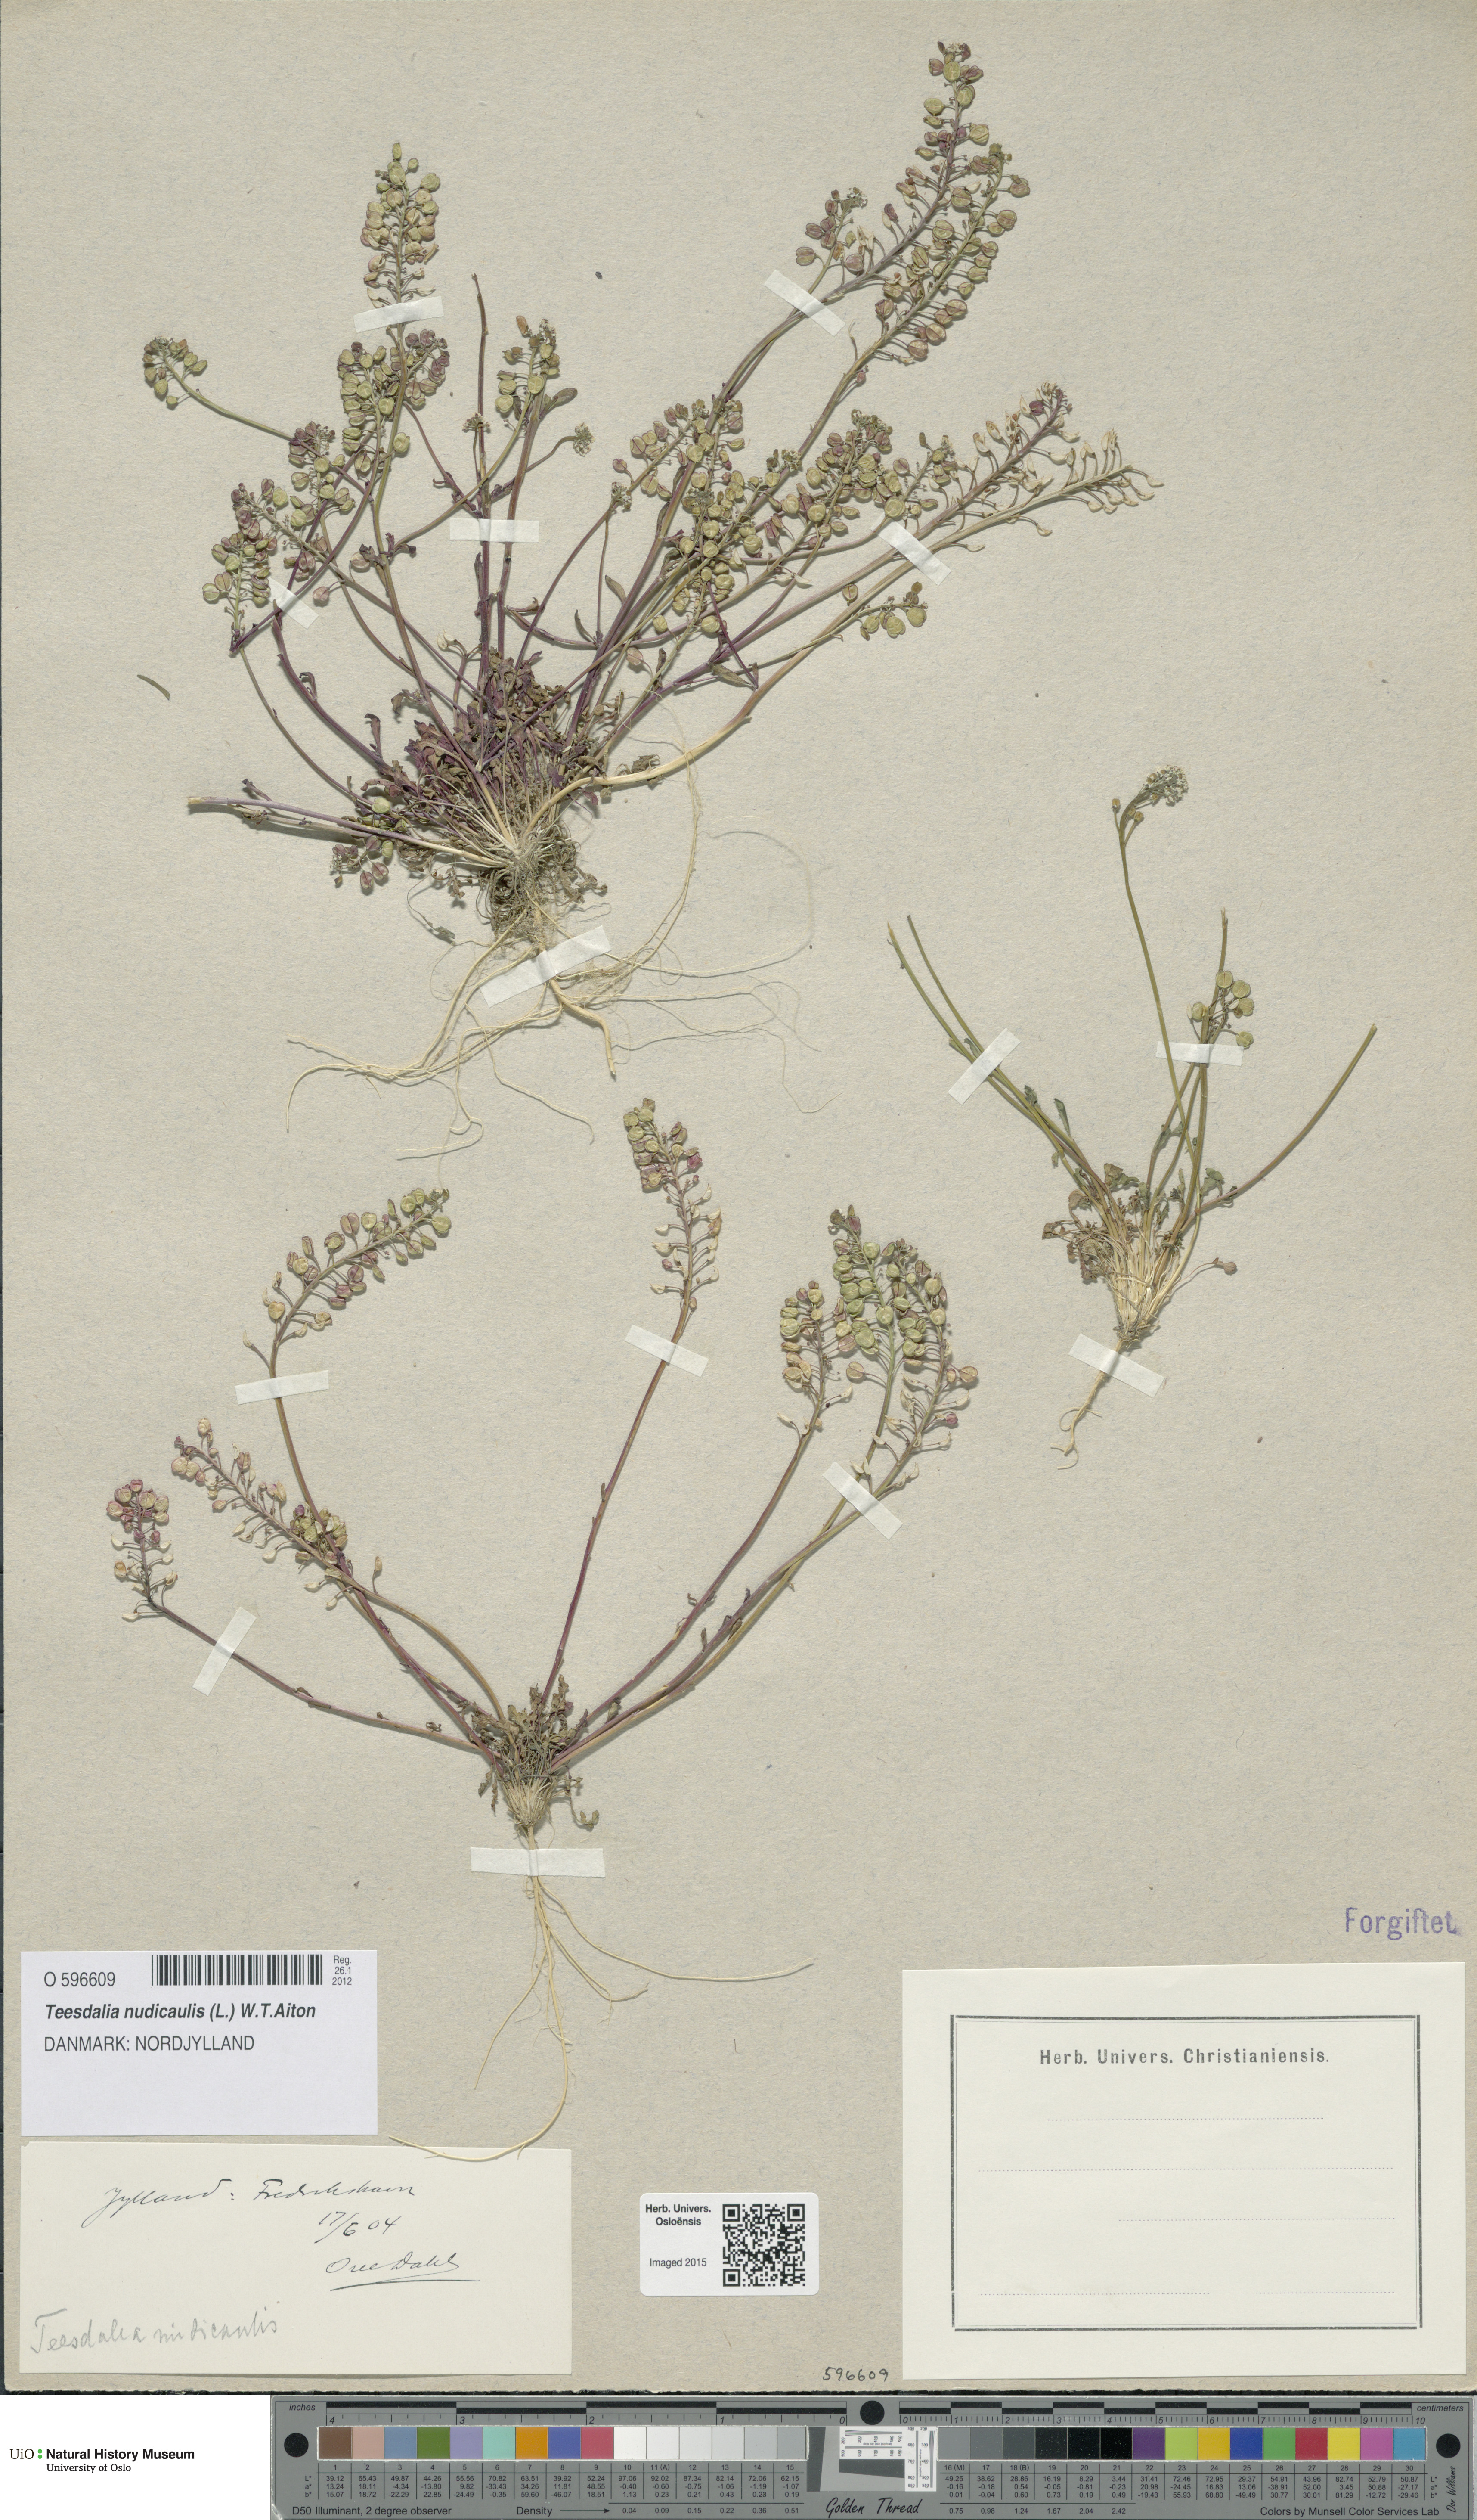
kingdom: Plantae
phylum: Tracheophyta
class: Magnoliopsida
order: Brassicales
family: Brassicaceae
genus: Teesdalia
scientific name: Teesdalia nudicaulis
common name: Shepherd's cress
